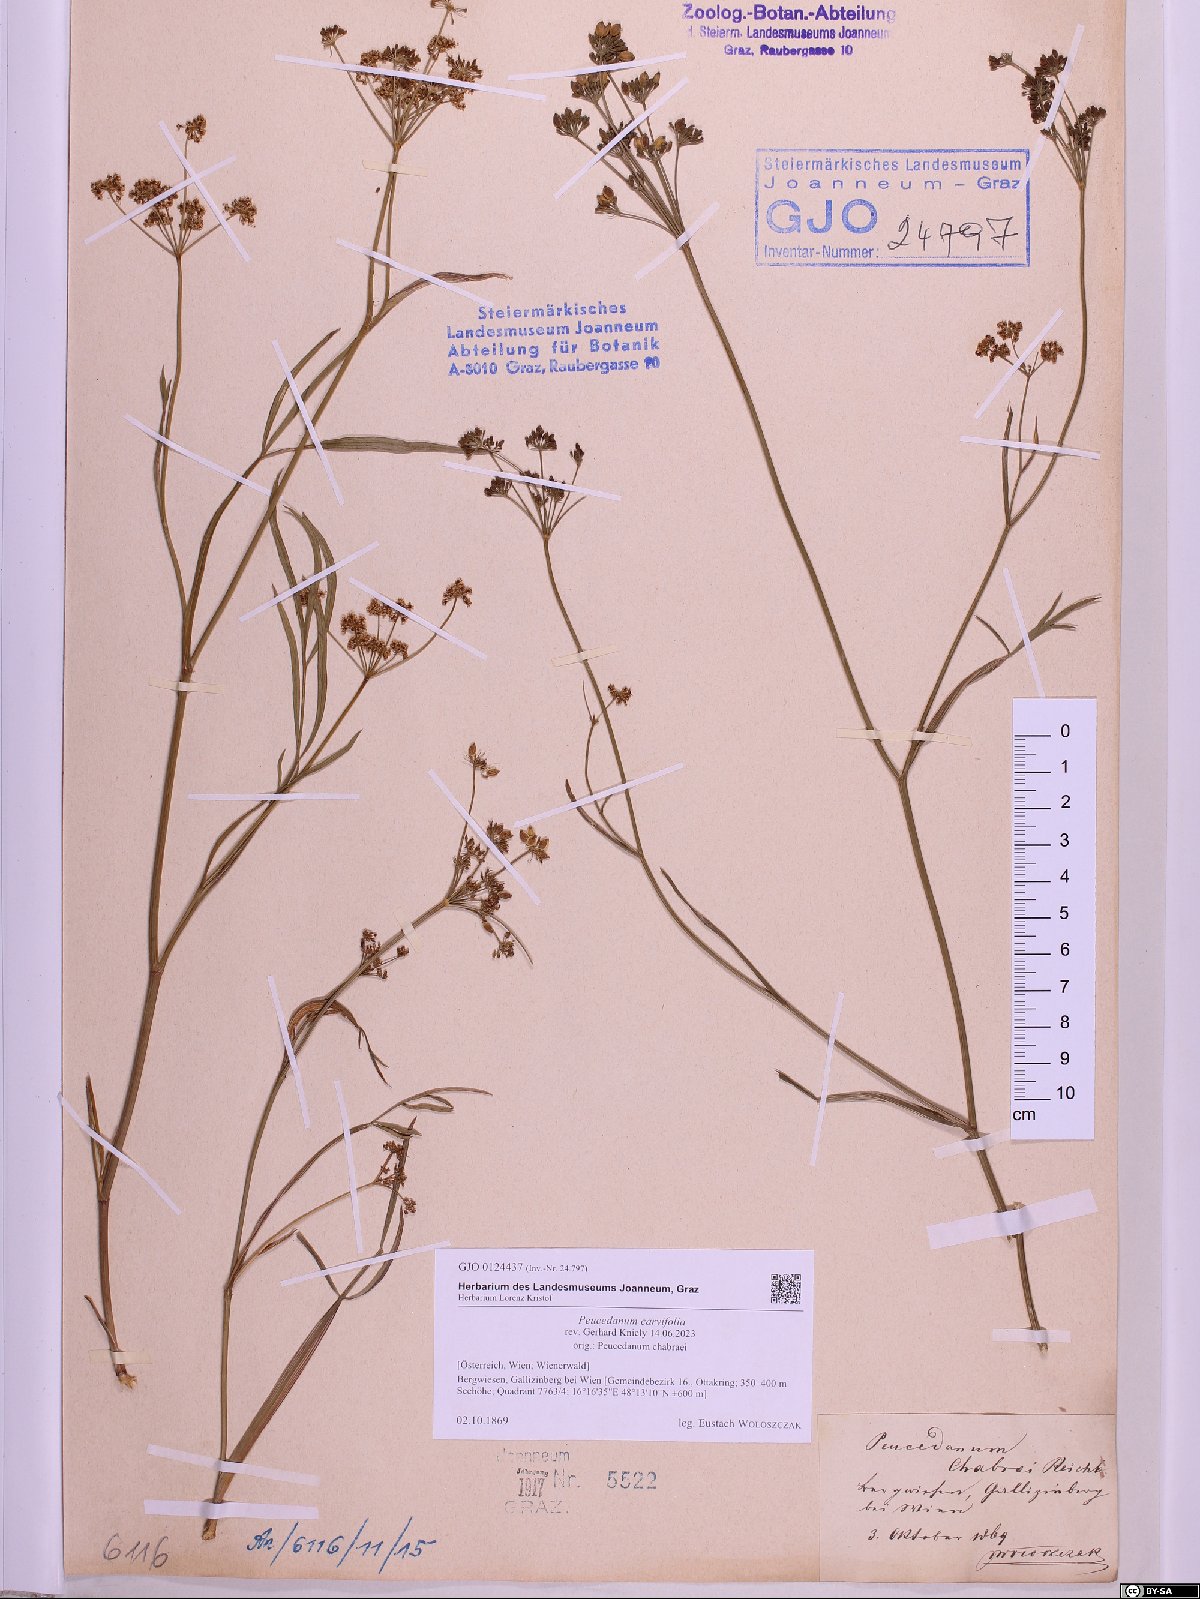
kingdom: Plantae
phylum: Tracheophyta
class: Magnoliopsida
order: Apiales
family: Apiaceae
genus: Dichoropetalum
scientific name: Dichoropetalum carvifolia
